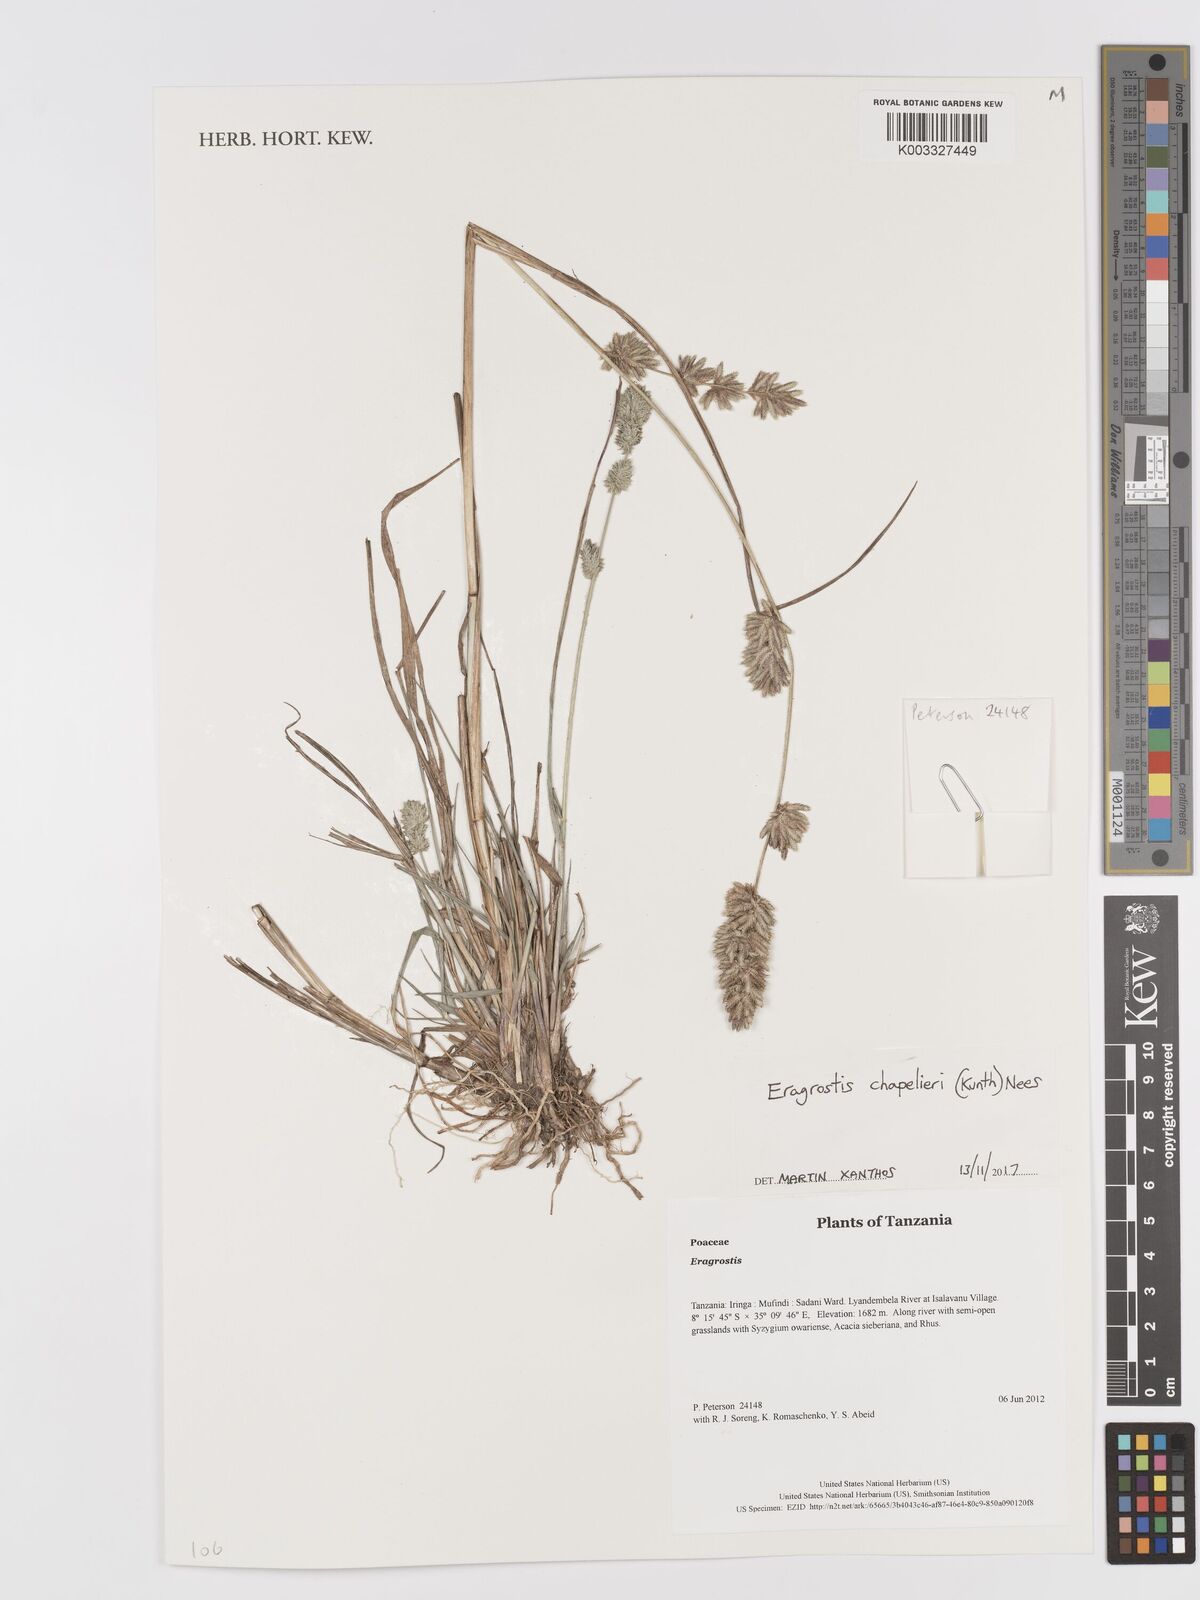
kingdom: Plantae
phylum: Tracheophyta
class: Liliopsida
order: Poales
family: Poaceae
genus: Eragrostis
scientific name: Eragrostis chapelieri
